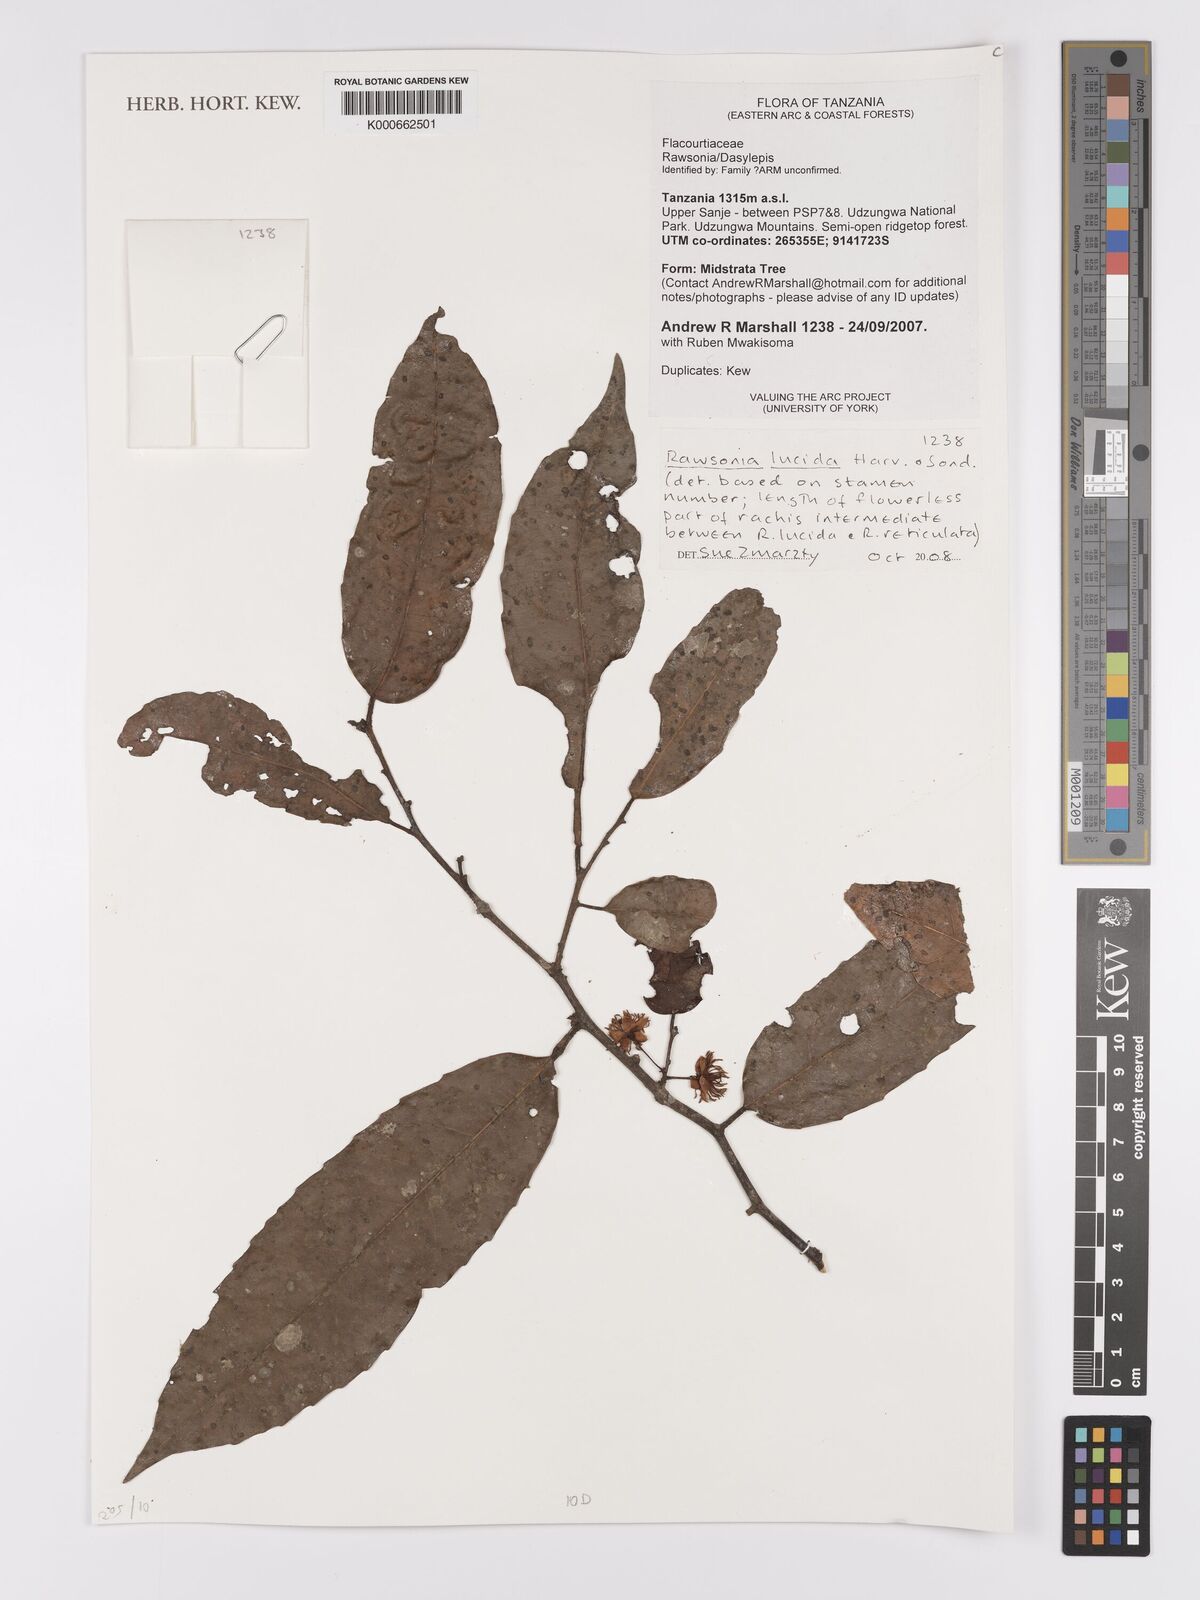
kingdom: Plantae
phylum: Tracheophyta
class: Magnoliopsida
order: Malpighiales
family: Achariaceae
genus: Rawsonia
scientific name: Rawsonia lucida
